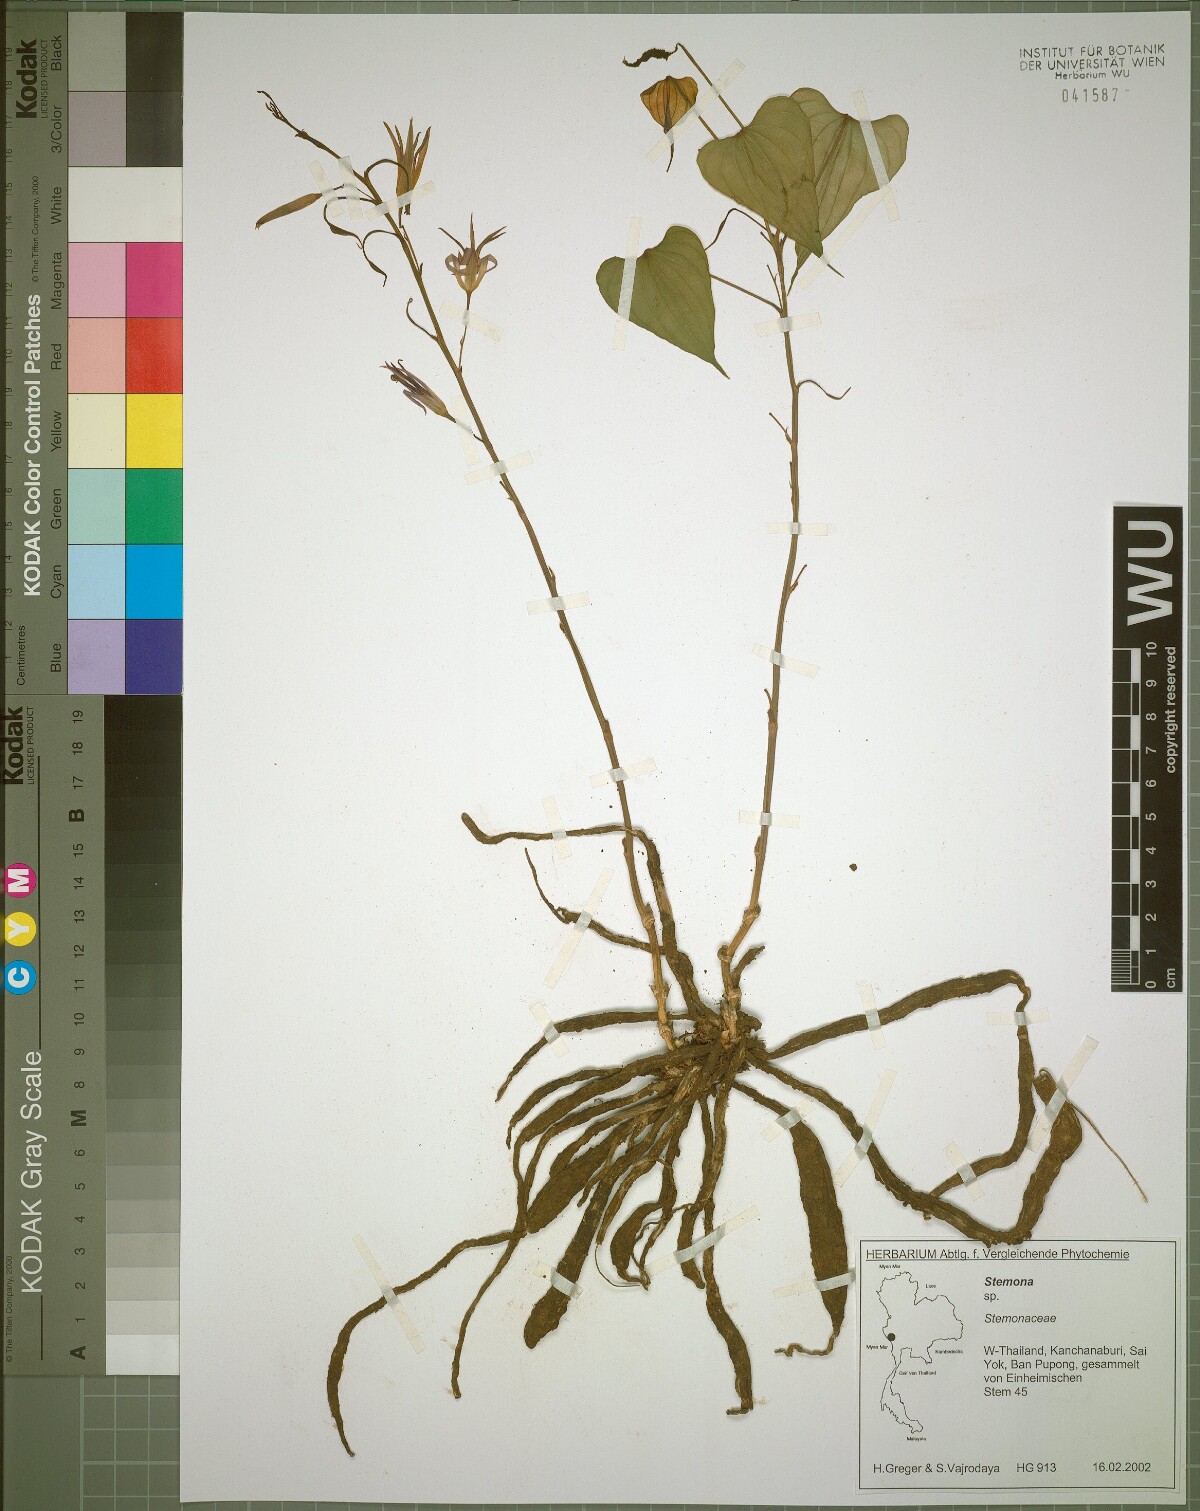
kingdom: Plantae
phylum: Tracheophyta
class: Liliopsida
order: Pandanales
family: Stemonaceae
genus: Stemona
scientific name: Stemona burkillii
